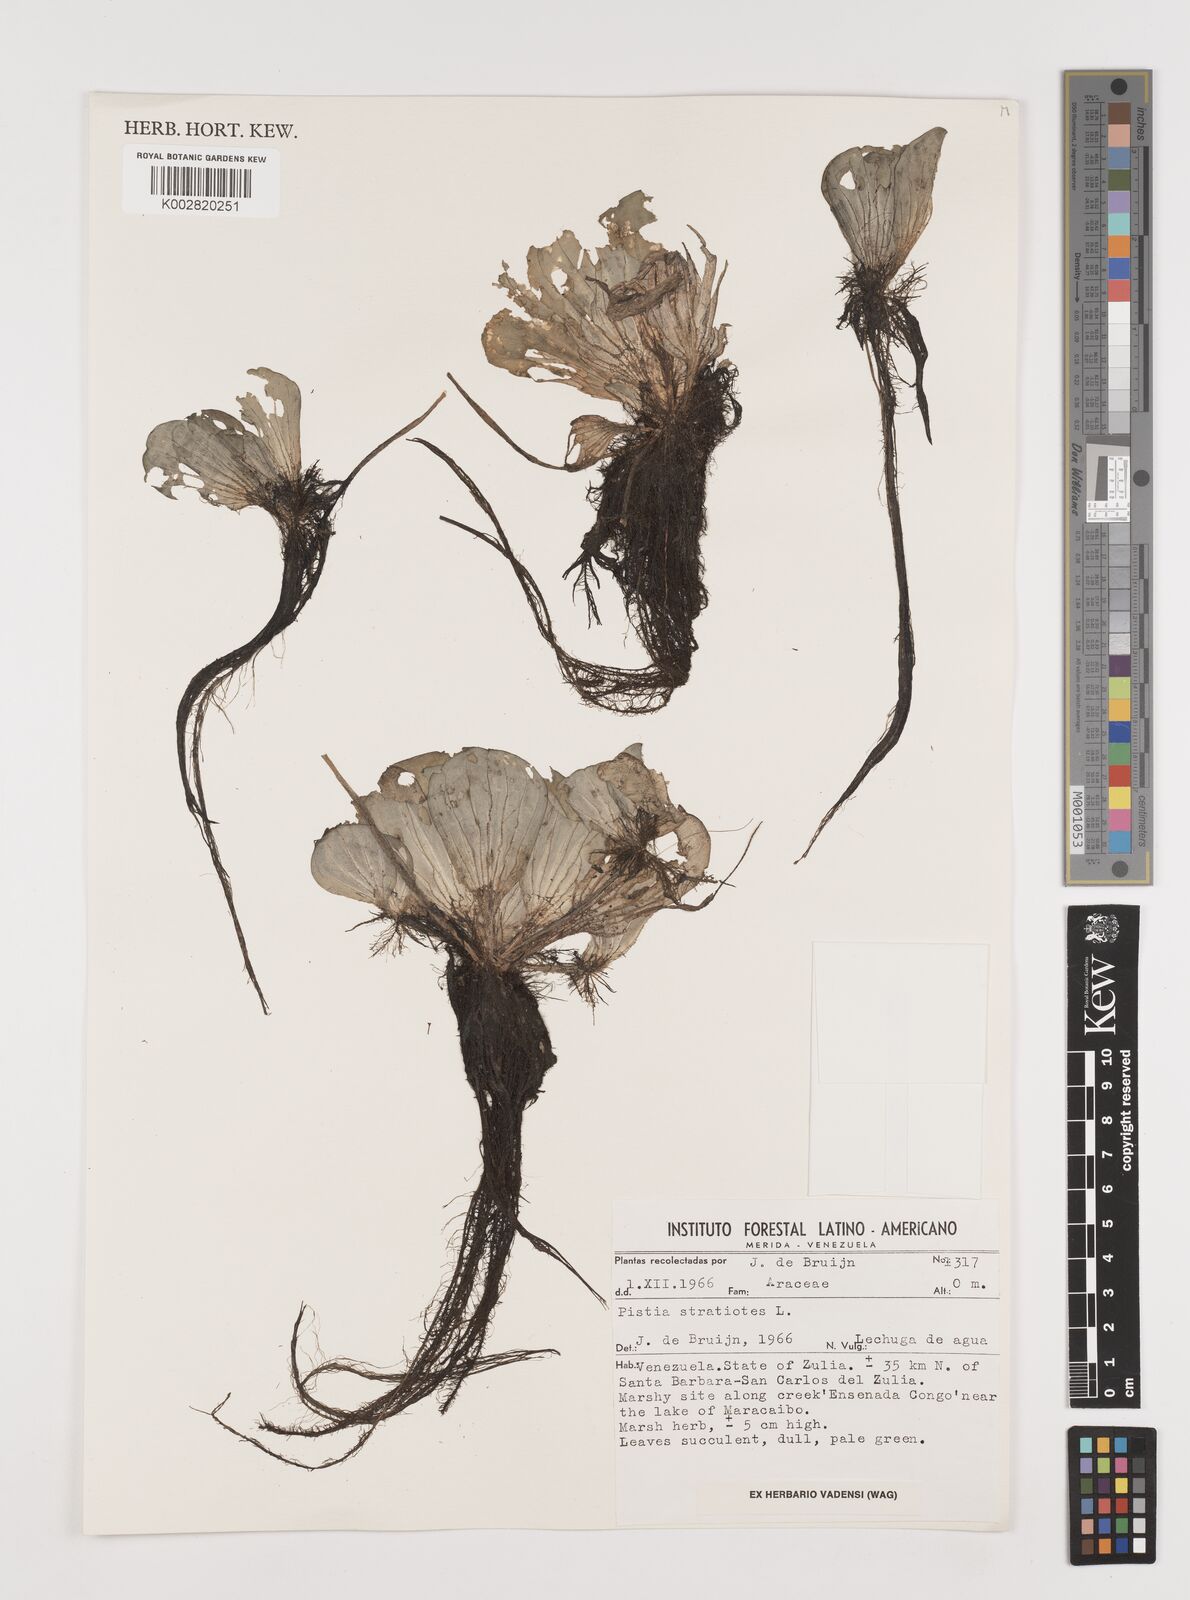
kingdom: Plantae
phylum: Tracheophyta
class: Liliopsida
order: Alismatales
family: Araceae
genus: Pistia
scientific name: Pistia stratiotes
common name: Water lettuce
